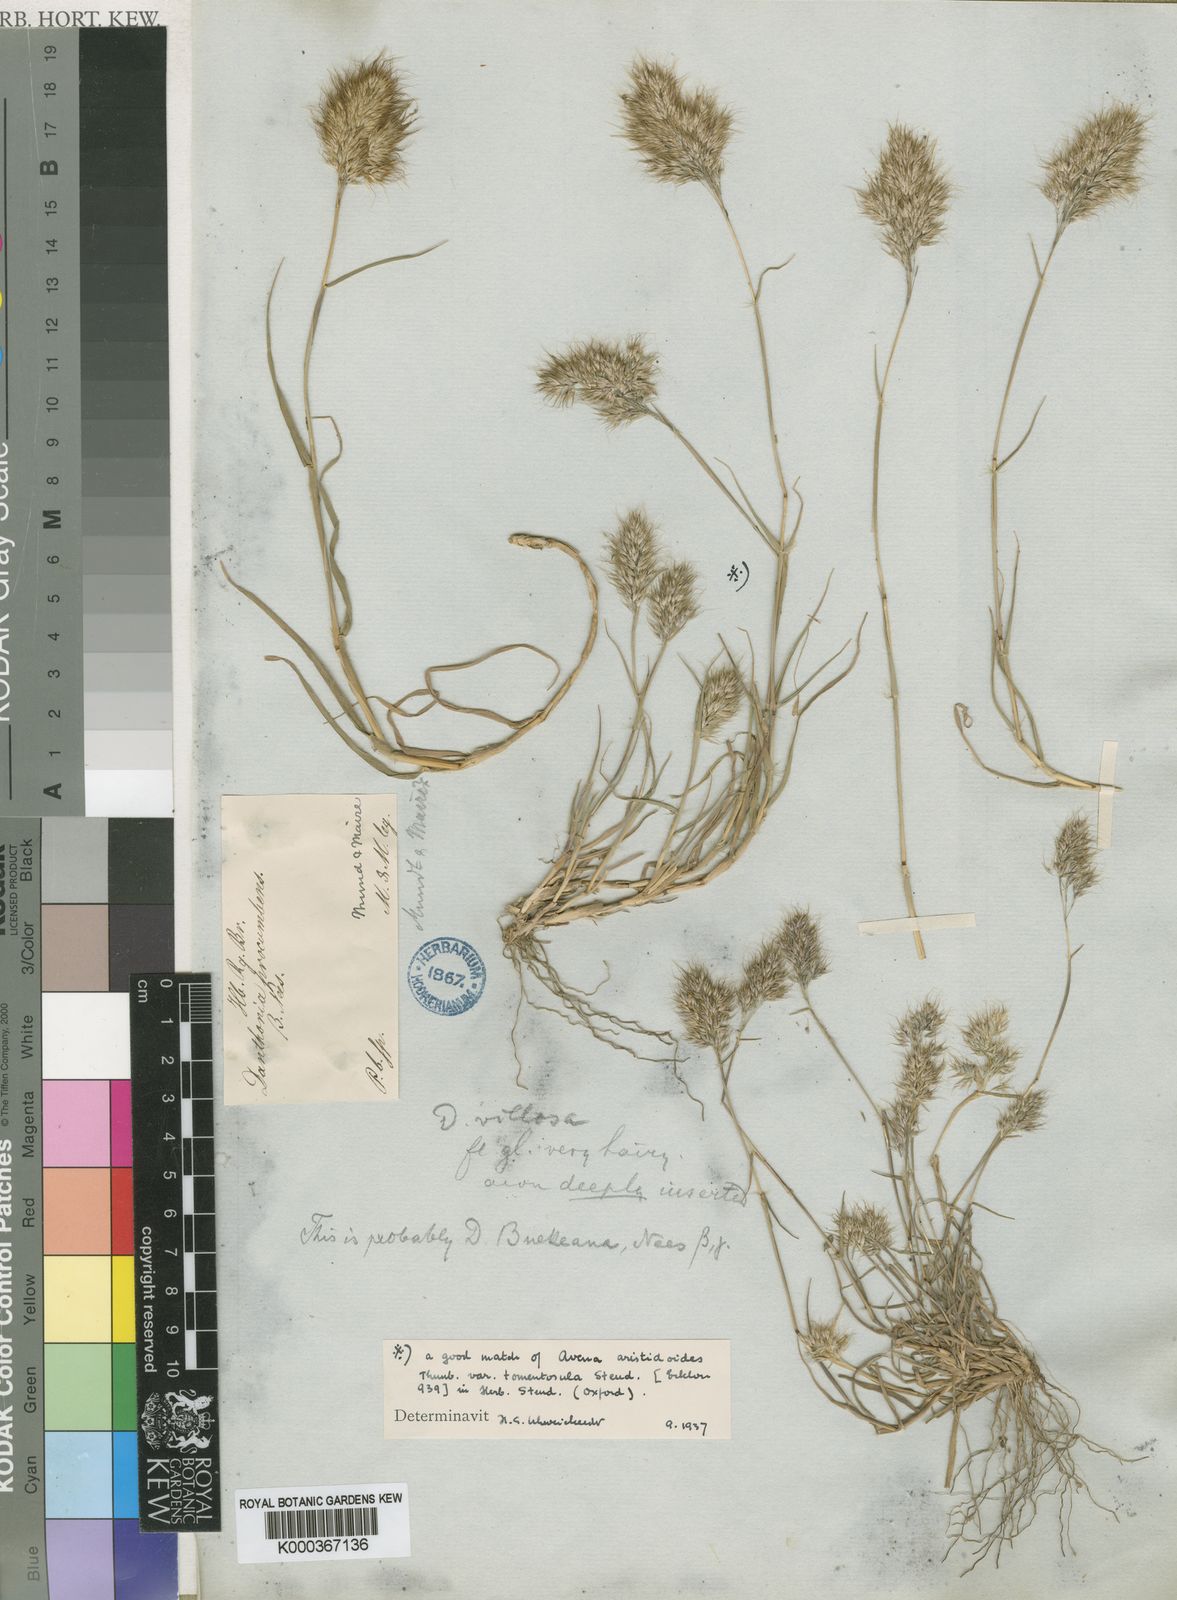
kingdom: Plantae
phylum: Tracheophyta
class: Liliopsida
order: Poales
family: Poaceae
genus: Pentameris
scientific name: Pentameris triseta
